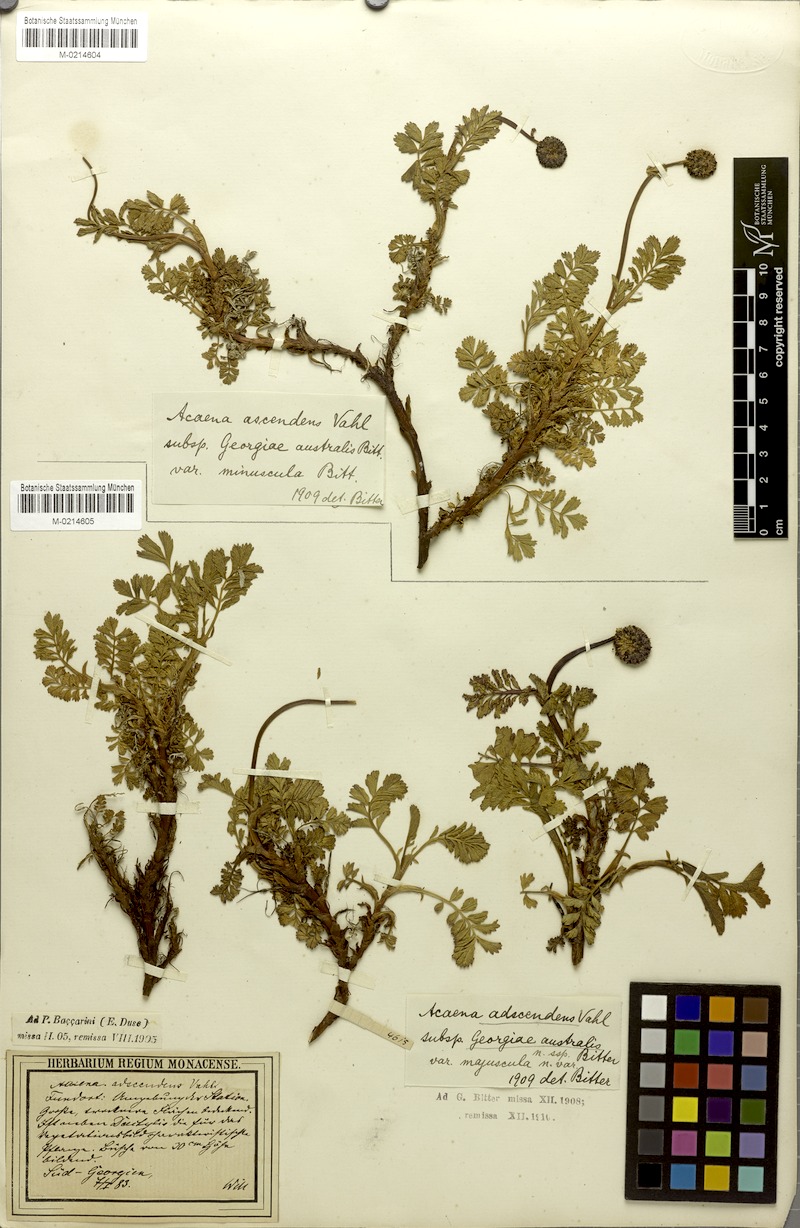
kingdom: Plantae
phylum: Tracheophyta
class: Magnoliopsida
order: Rosales
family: Rosaceae
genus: Acaena
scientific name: Acaena magellanica
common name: New zealand burr
